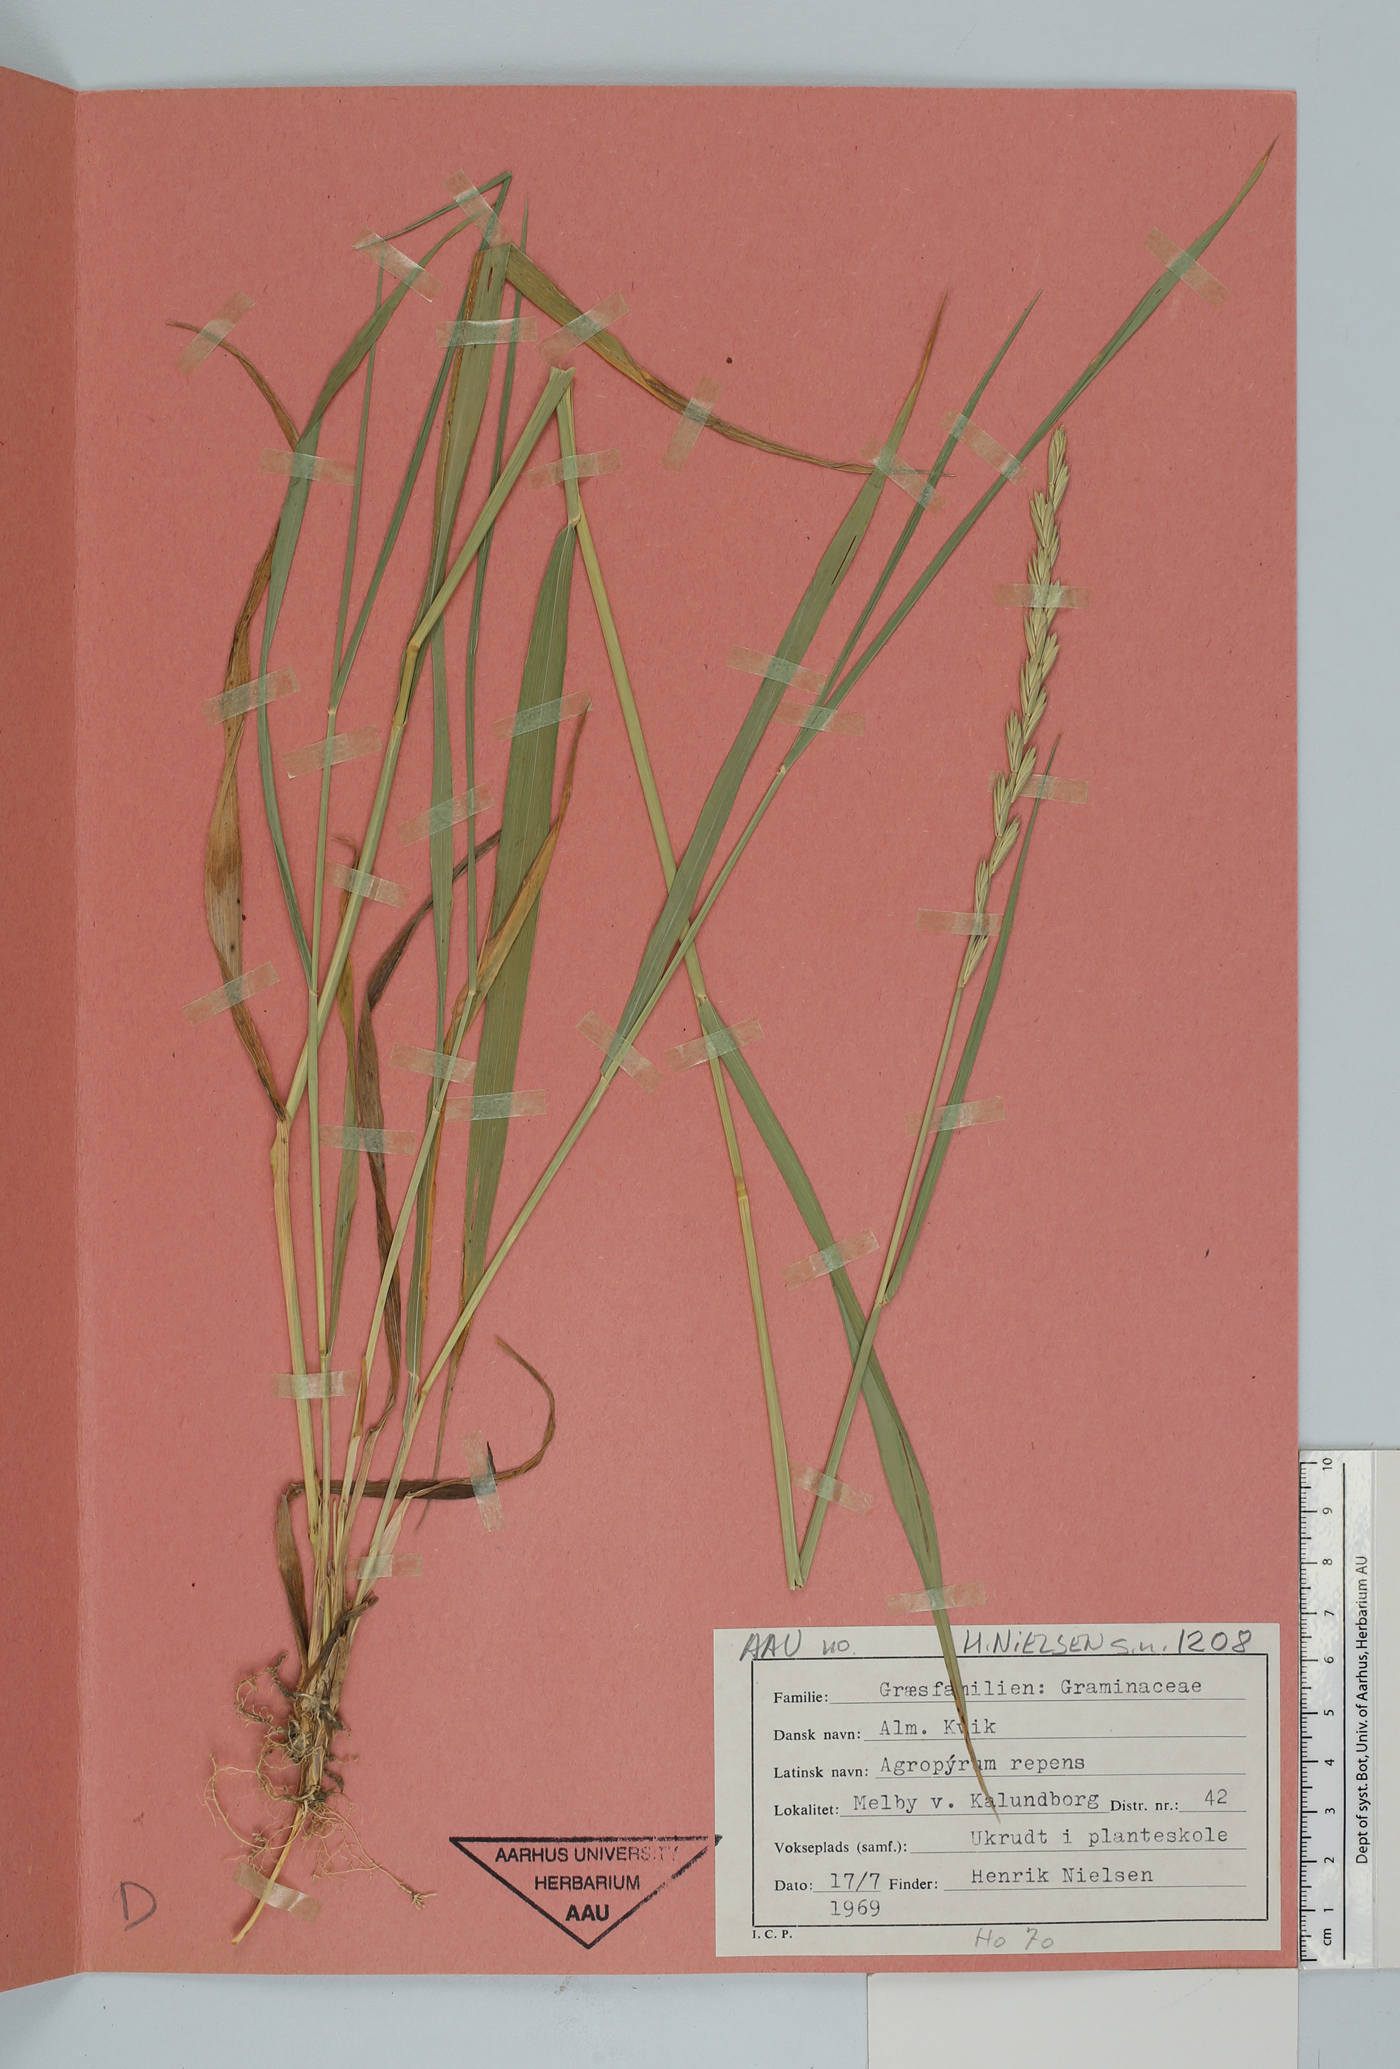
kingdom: Plantae
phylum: Tracheophyta
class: Liliopsida
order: Poales
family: Poaceae
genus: Elymus
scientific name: Elymus repens
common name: Quackgrass
